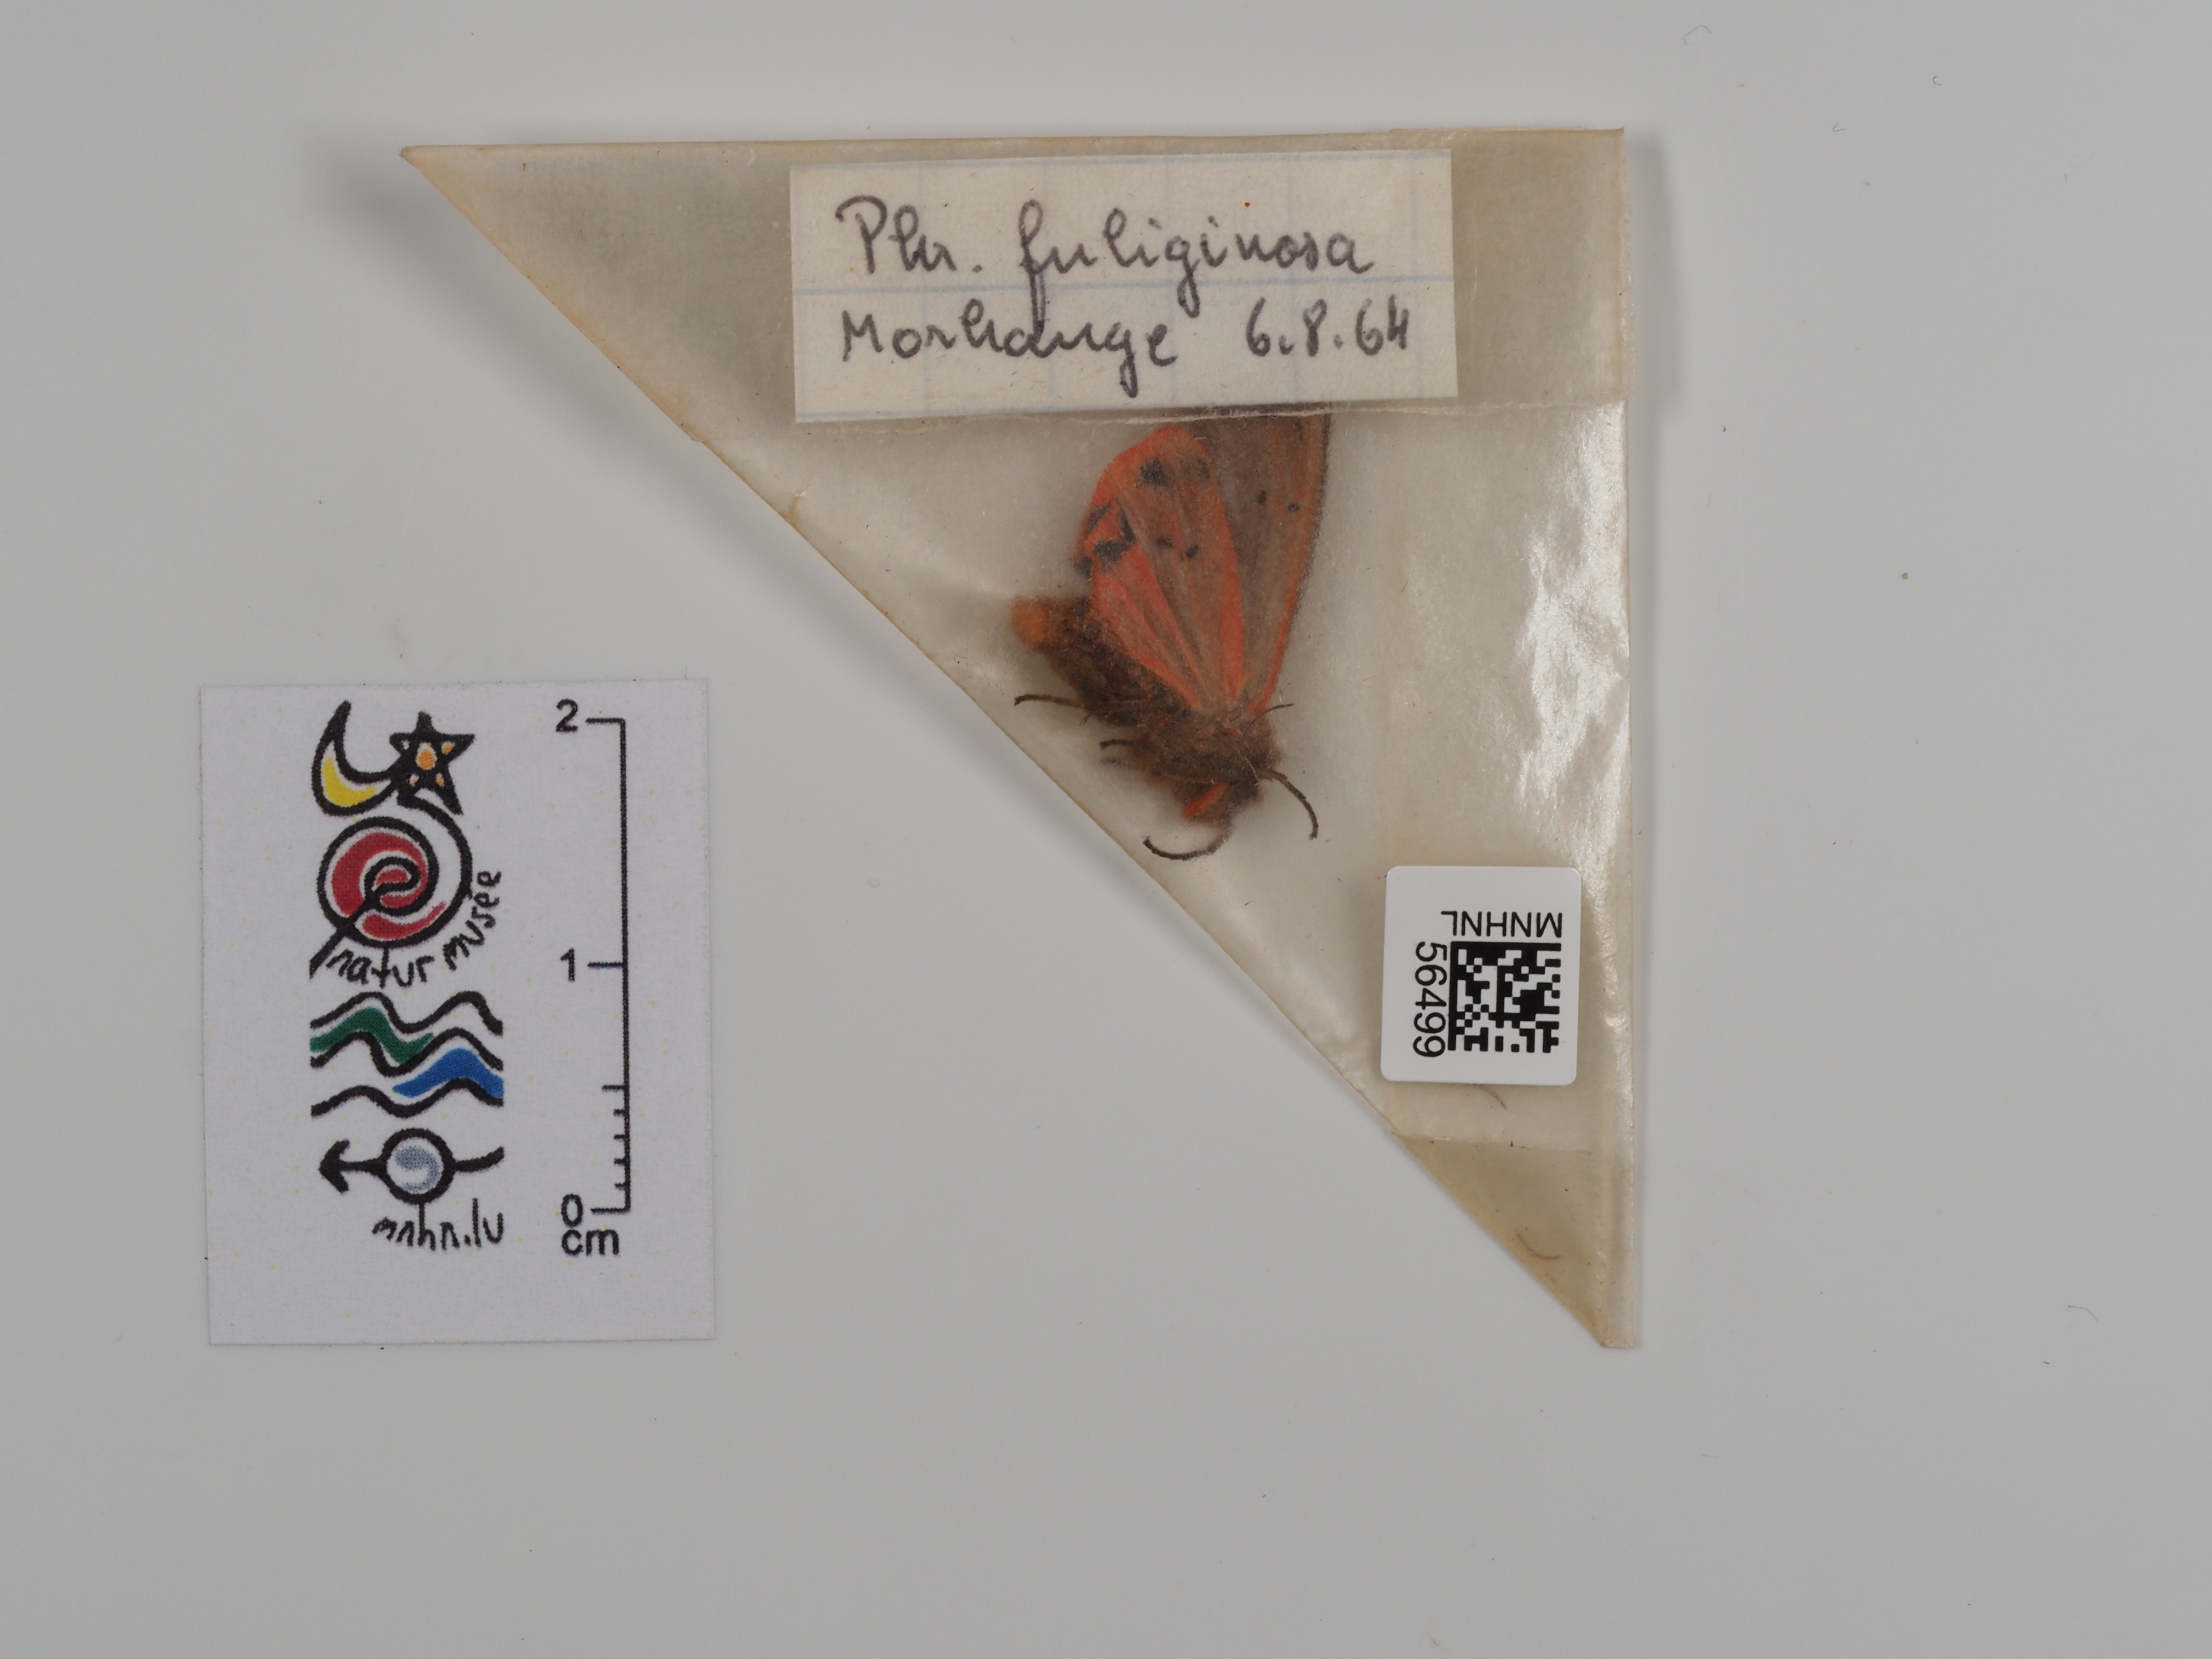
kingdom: Animalia
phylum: Arthropoda
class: Insecta
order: Lepidoptera
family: Erebidae
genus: Phragmatobia
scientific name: Phragmatobia fuliginosa
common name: Ruby tiger
